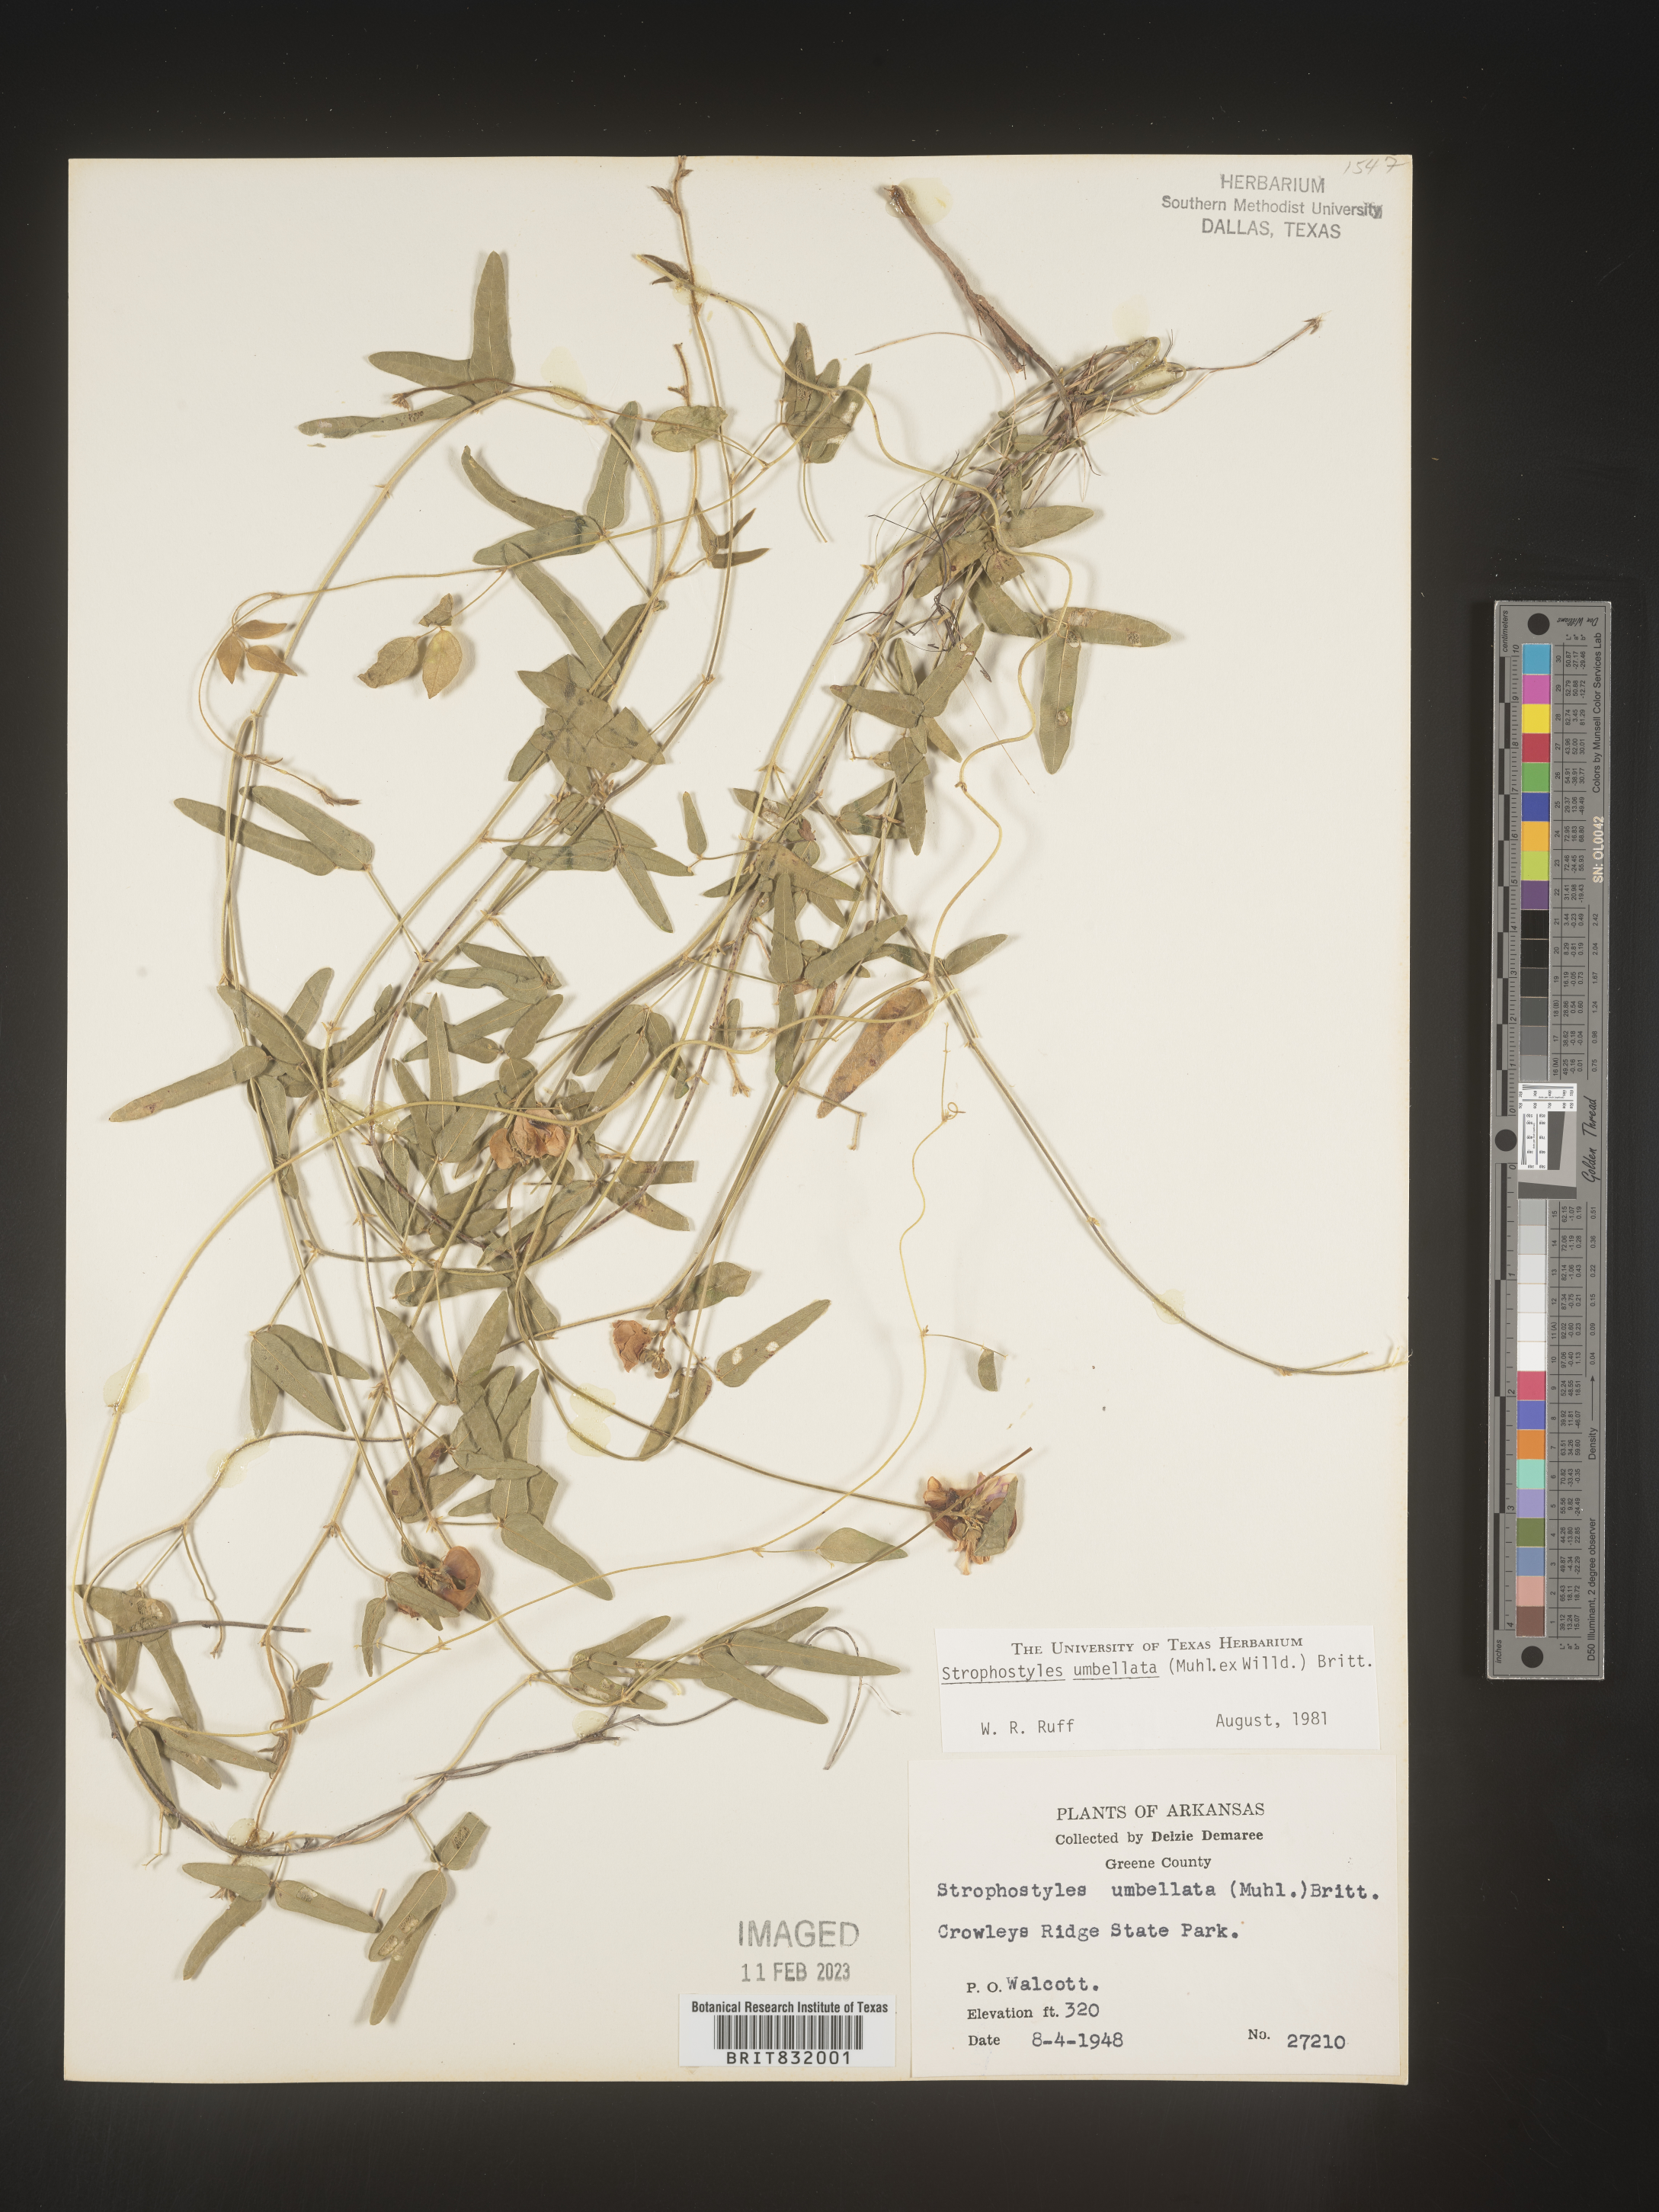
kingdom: Plantae
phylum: Tracheophyta
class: Magnoliopsida
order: Fabales
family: Fabaceae
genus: Strophostyles
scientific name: Strophostyles umbellata
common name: Perennial wild bean
